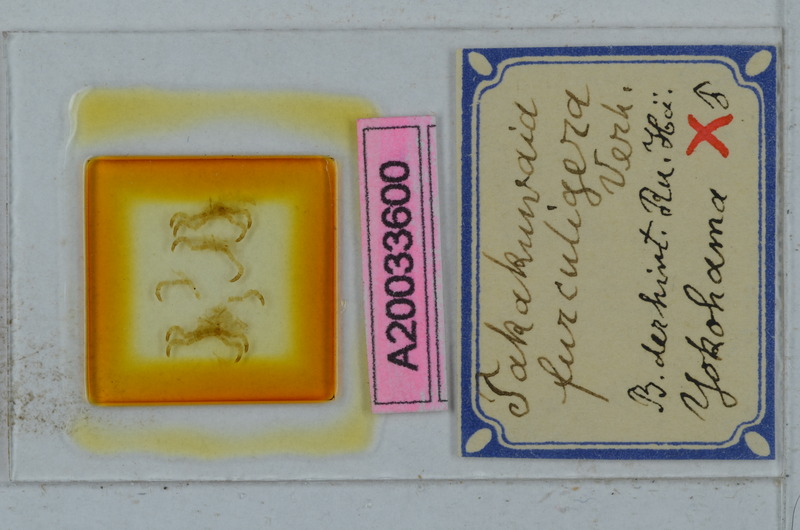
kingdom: Animalia
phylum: Arthropoda
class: Diplopoda
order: Polydesmida
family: Xystodesmidae
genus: Xystodesmus
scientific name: Xystodesmus martensii
